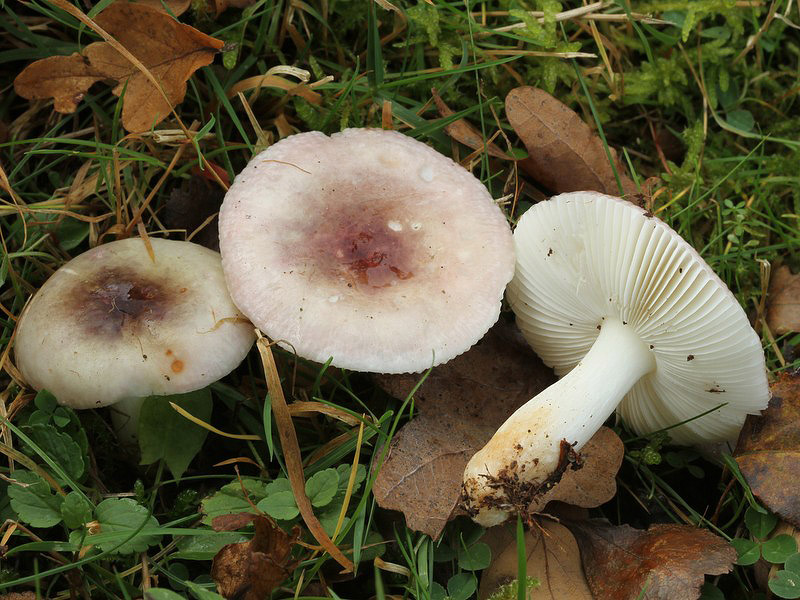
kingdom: Fungi
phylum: Basidiomycota
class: Agaricomycetes
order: Russulales
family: Russulaceae
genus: Russula
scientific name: Russula versicolor
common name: foranderlig skørhat
